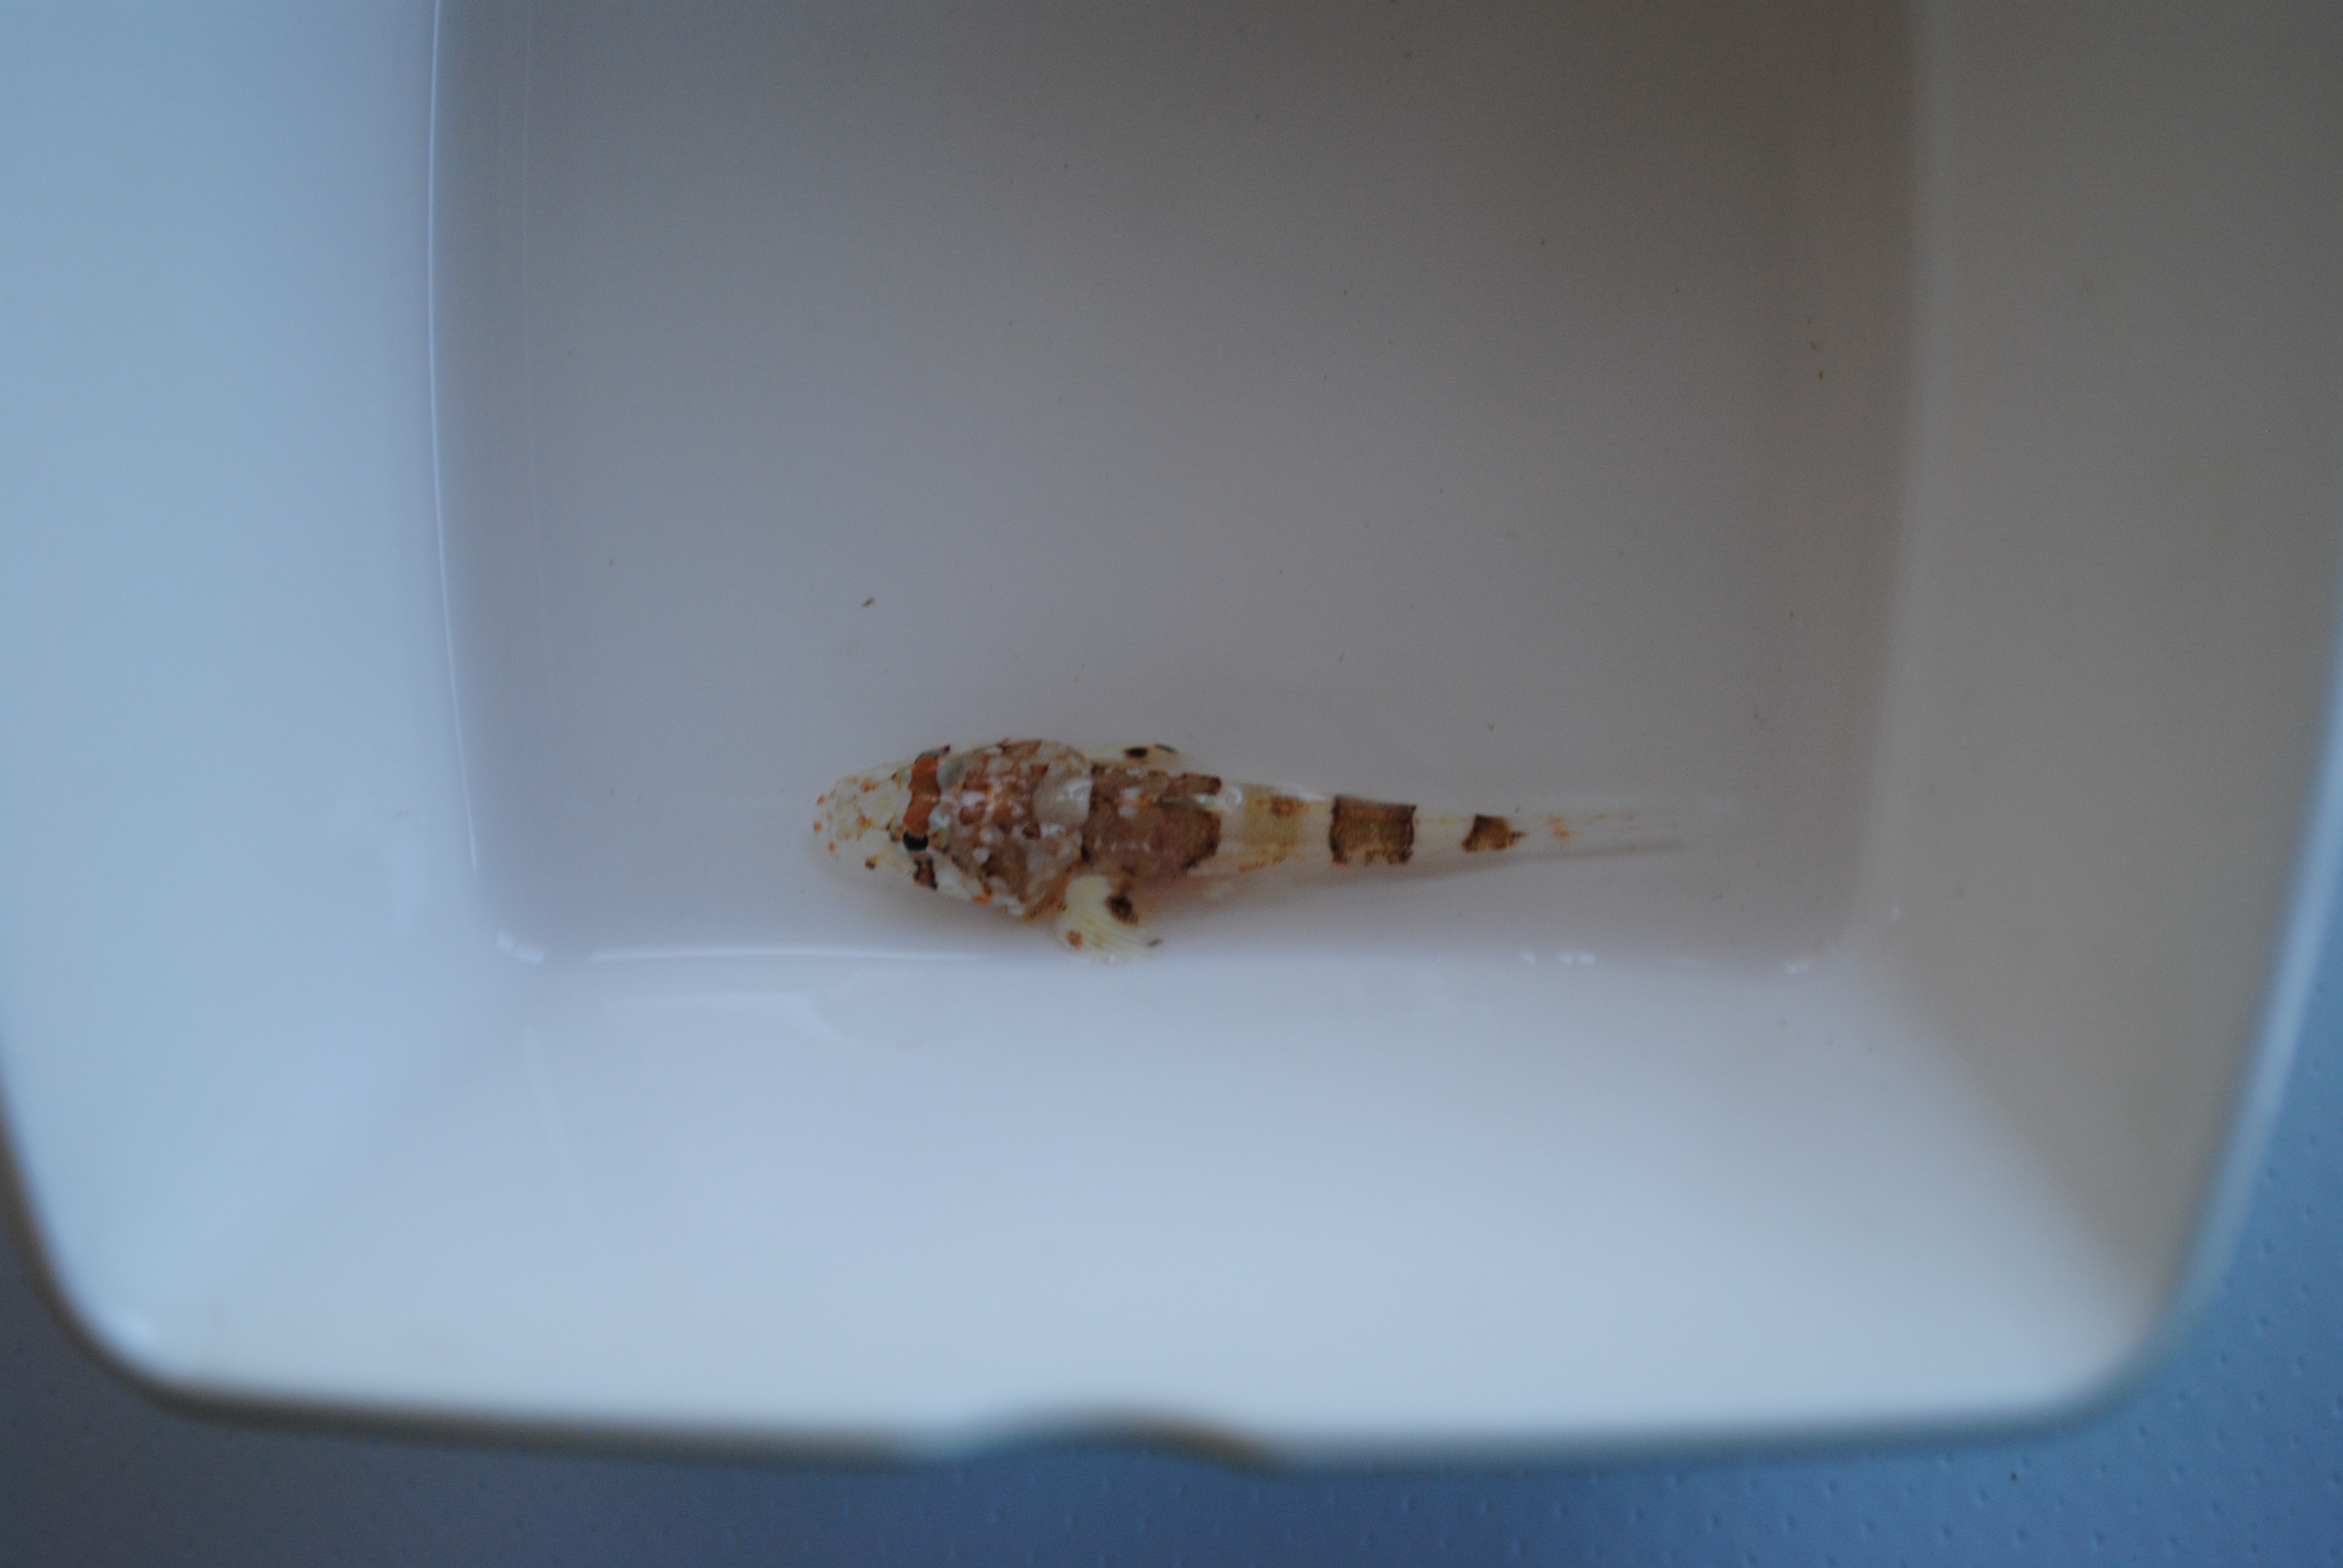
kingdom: Animalia
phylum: Chordata
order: Scorpaeniformes
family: Platycephalidae
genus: Sunagocia
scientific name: Sunagocia arenicola
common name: Broadhead flathead
